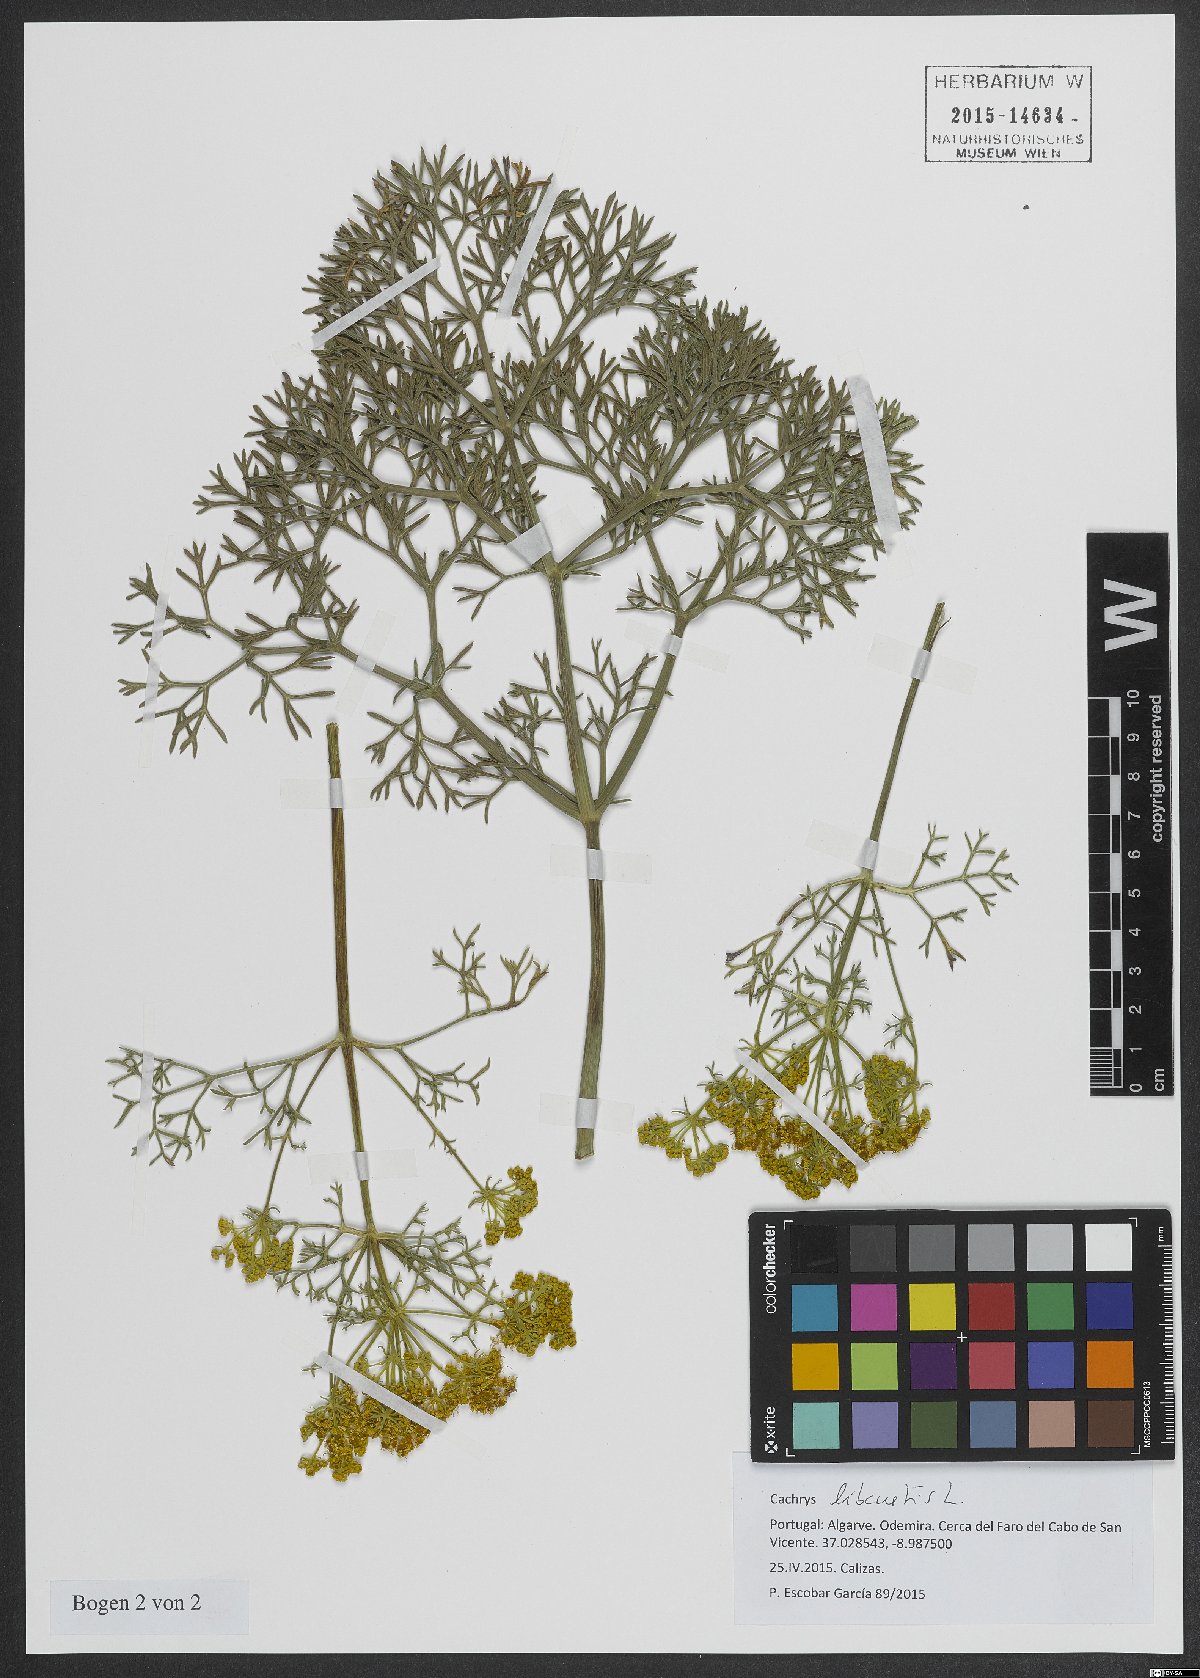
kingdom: Plantae
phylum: Tracheophyta
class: Magnoliopsida
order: Apiales
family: Apiaceae
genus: Cachrys
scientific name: Cachrys libanotis
